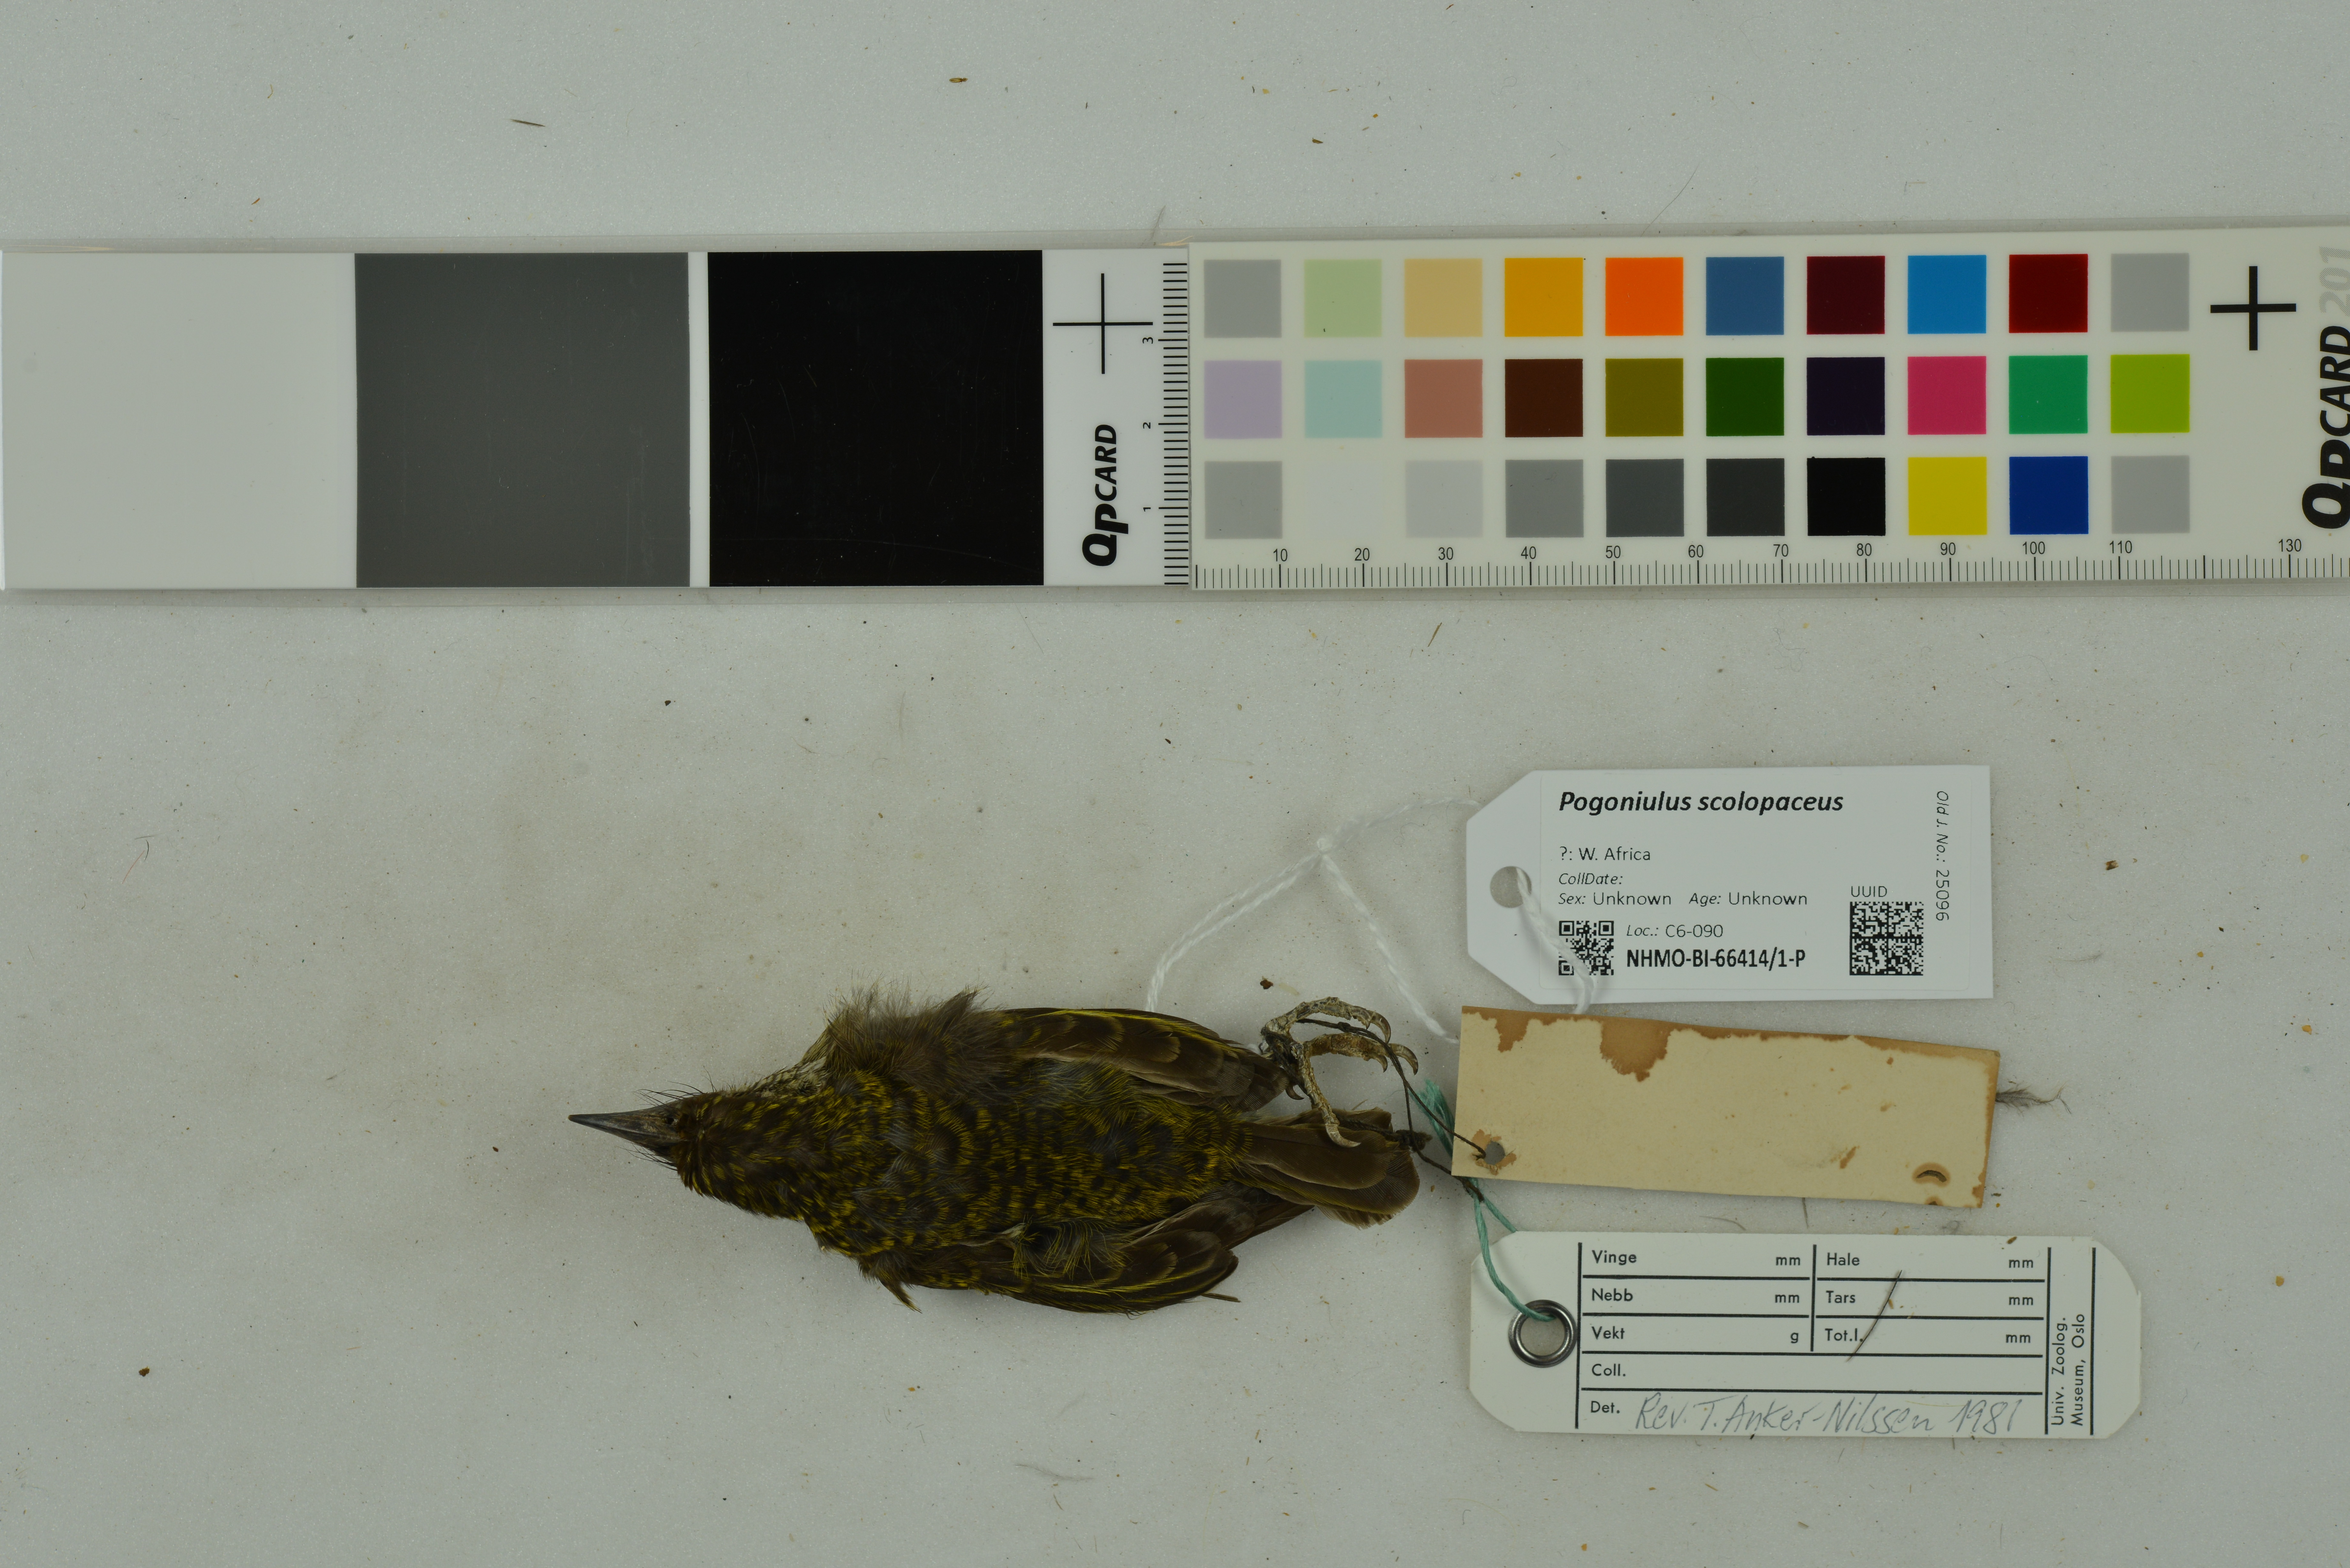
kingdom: Animalia
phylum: Chordata
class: Aves
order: Piciformes
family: Lybiidae
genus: Pogoniulus
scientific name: Pogoniulus scolopaceus
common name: Speckled tinkerbird
